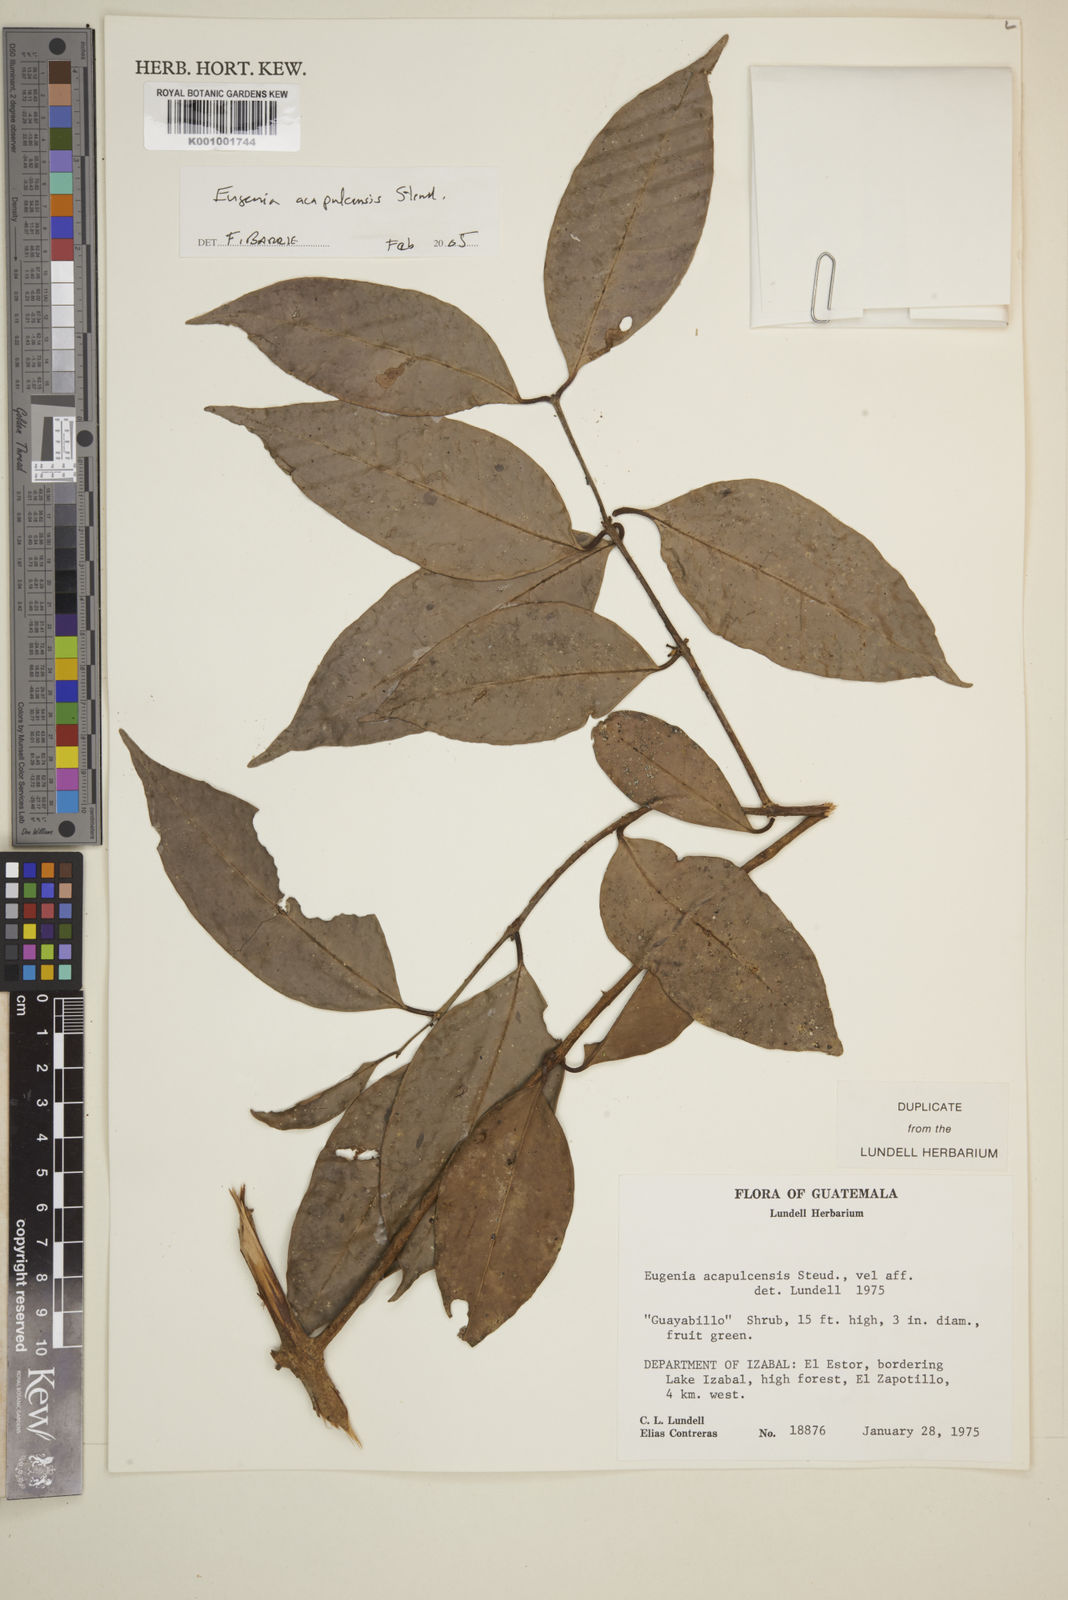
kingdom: Plantae
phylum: Tracheophyta
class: Magnoliopsida
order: Myrtales
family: Myrtaceae
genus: Eugenia
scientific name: Eugenia acapulcensis
